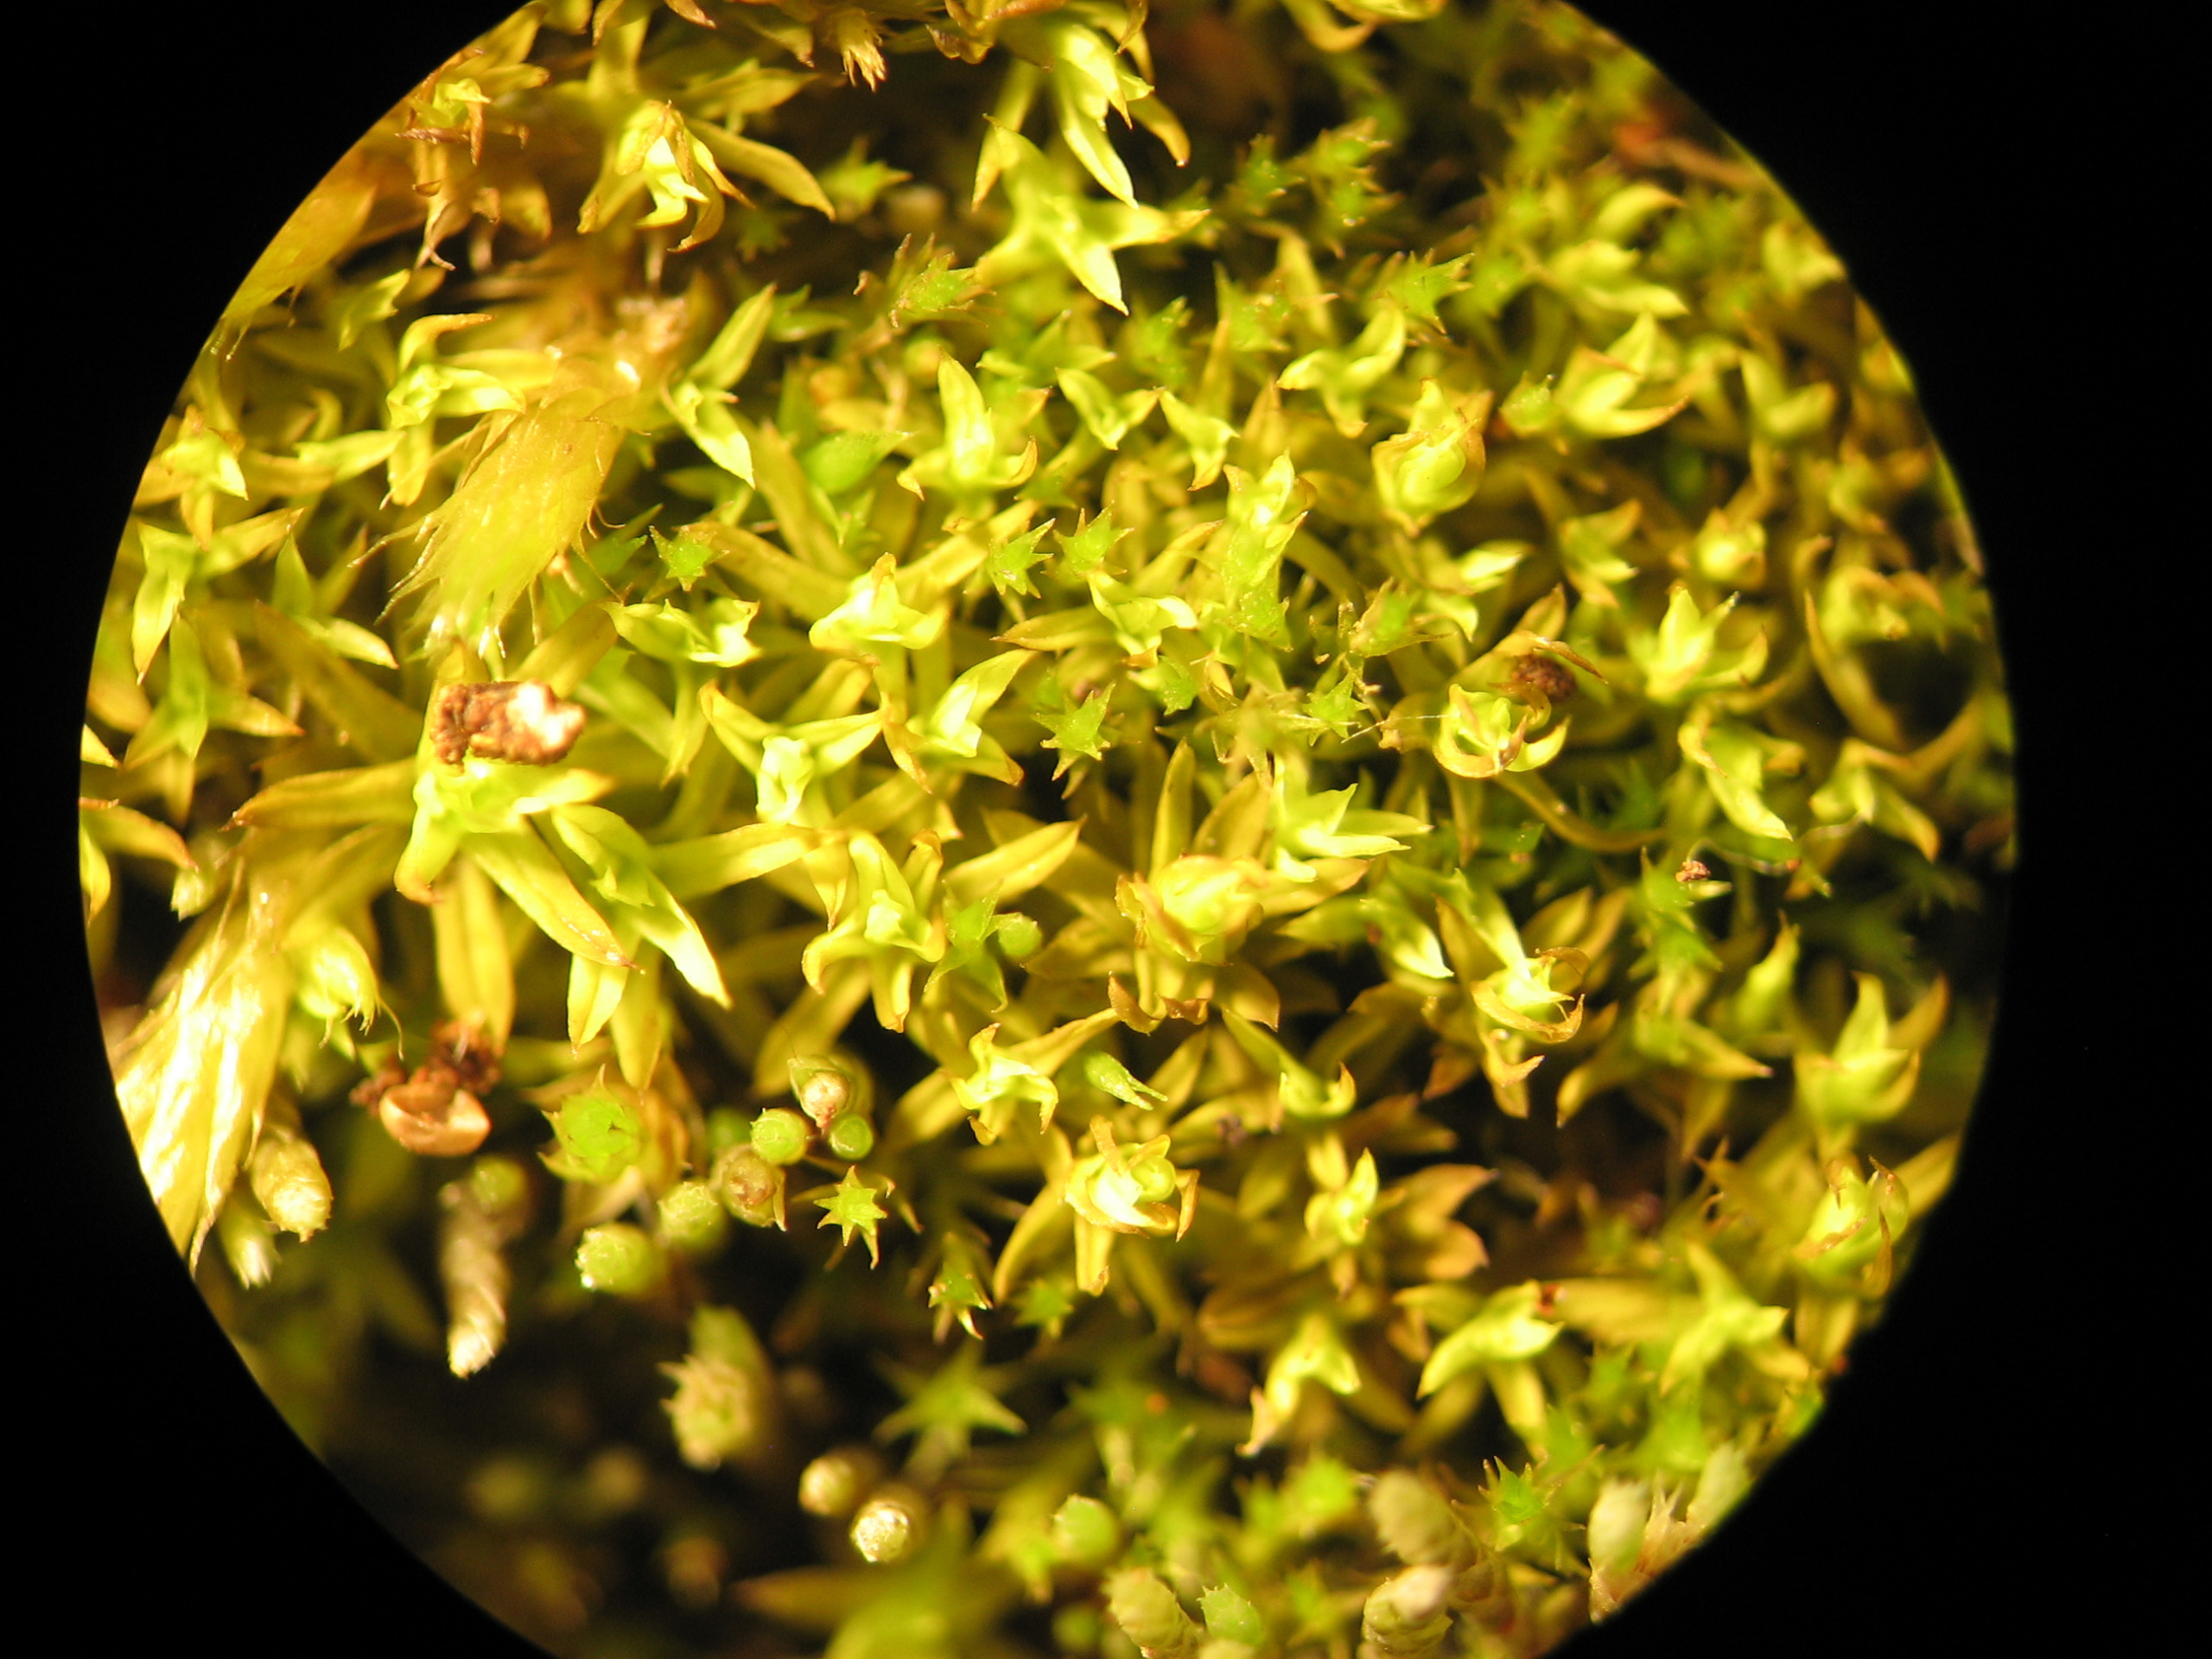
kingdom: Plantae
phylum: Bryophyta
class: Bryopsida
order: Pottiales
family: Pottiaceae
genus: Barbula
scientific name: Barbula unguiculata
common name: Almindelig skægtand
